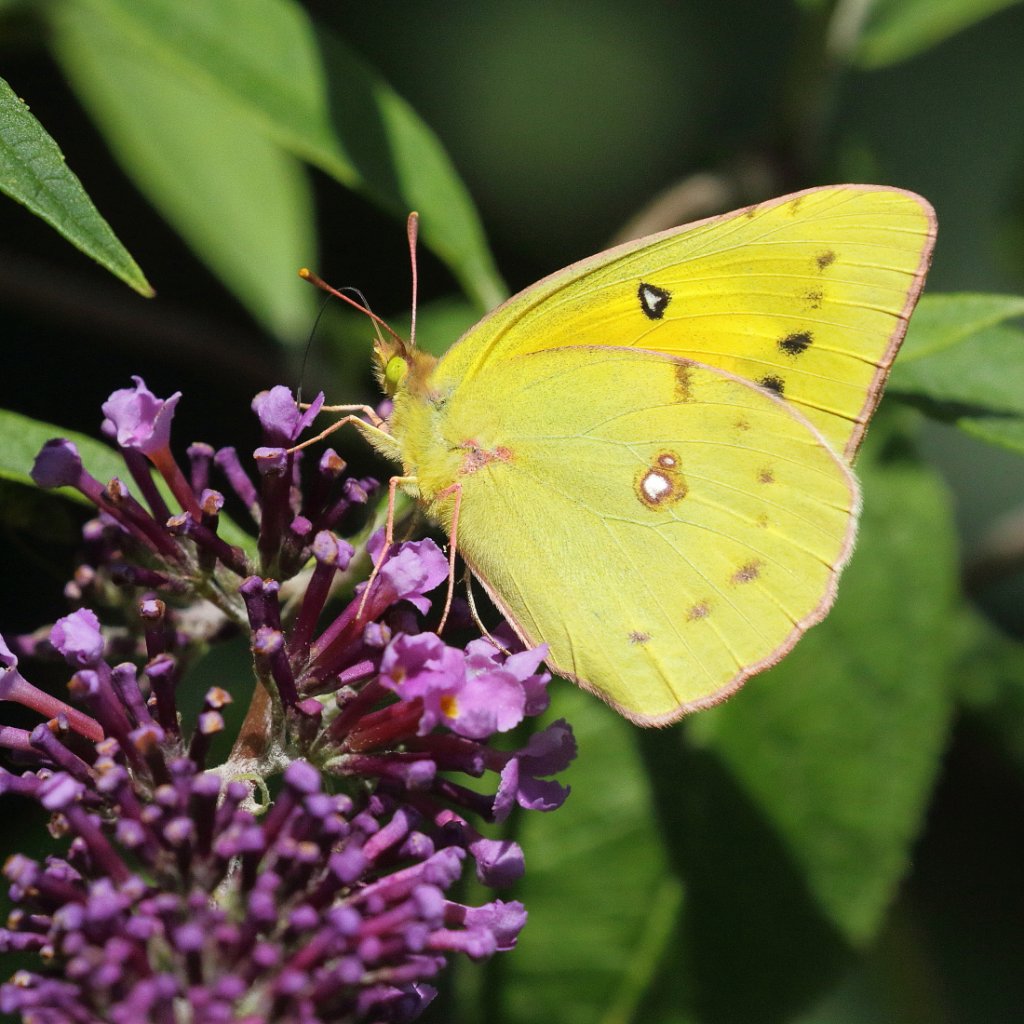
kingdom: Animalia
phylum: Arthropoda
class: Insecta
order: Lepidoptera
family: Pieridae
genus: Colias
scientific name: Colias eurytheme
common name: Orange Sulphur
